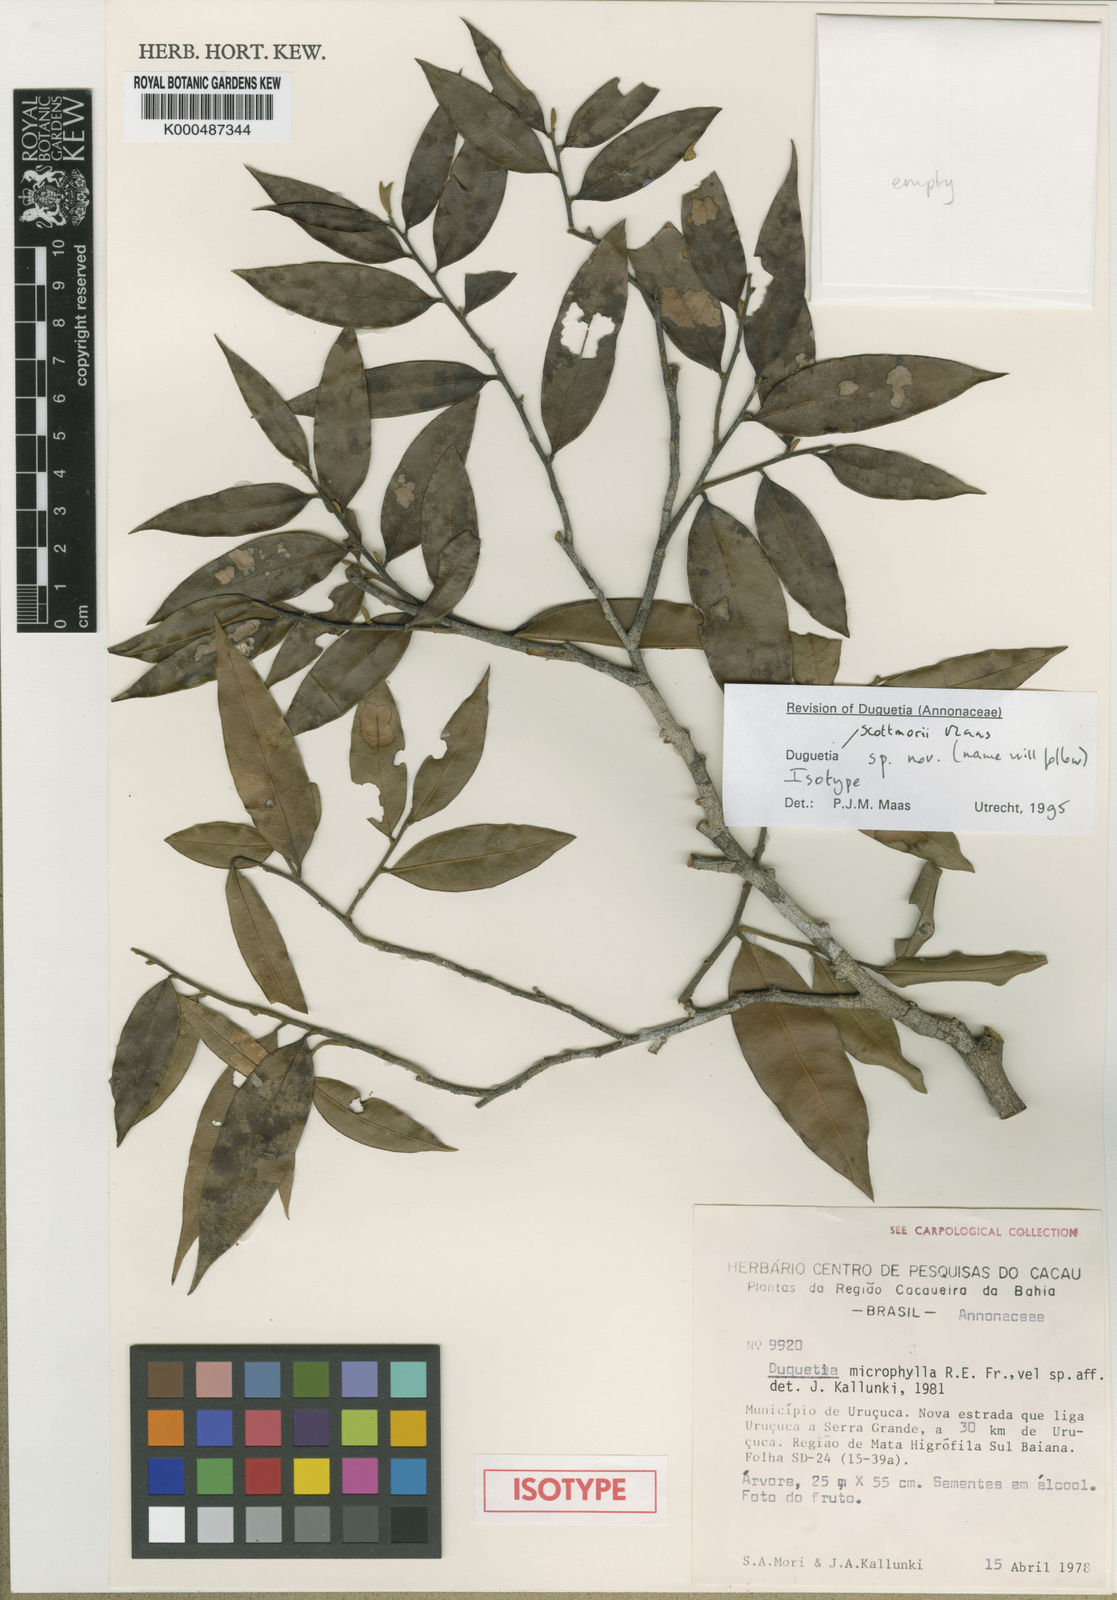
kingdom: Plantae
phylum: Tracheophyta
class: Magnoliopsida
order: Magnoliales
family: Annonaceae
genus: Duguetia
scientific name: Duguetia scottmorii
